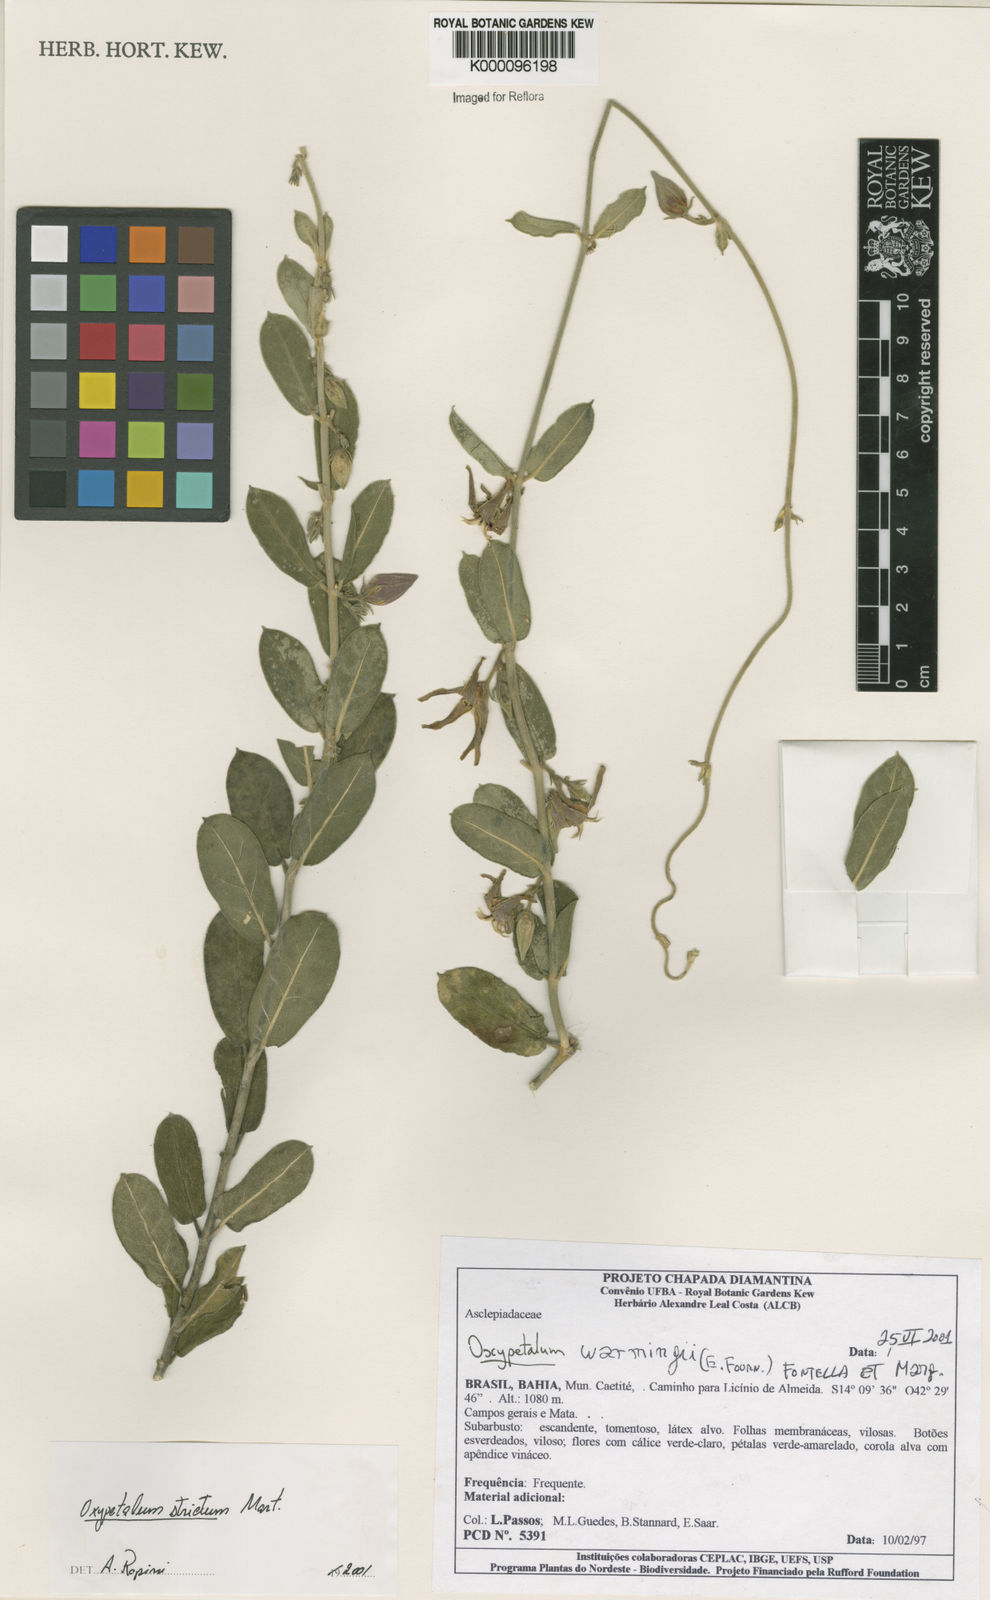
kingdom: Plantae
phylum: Tracheophyta
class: Magnoliopsida
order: Gentianales
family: Apocynaceae
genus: Oxypetalum
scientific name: Oxypetalum strictum
